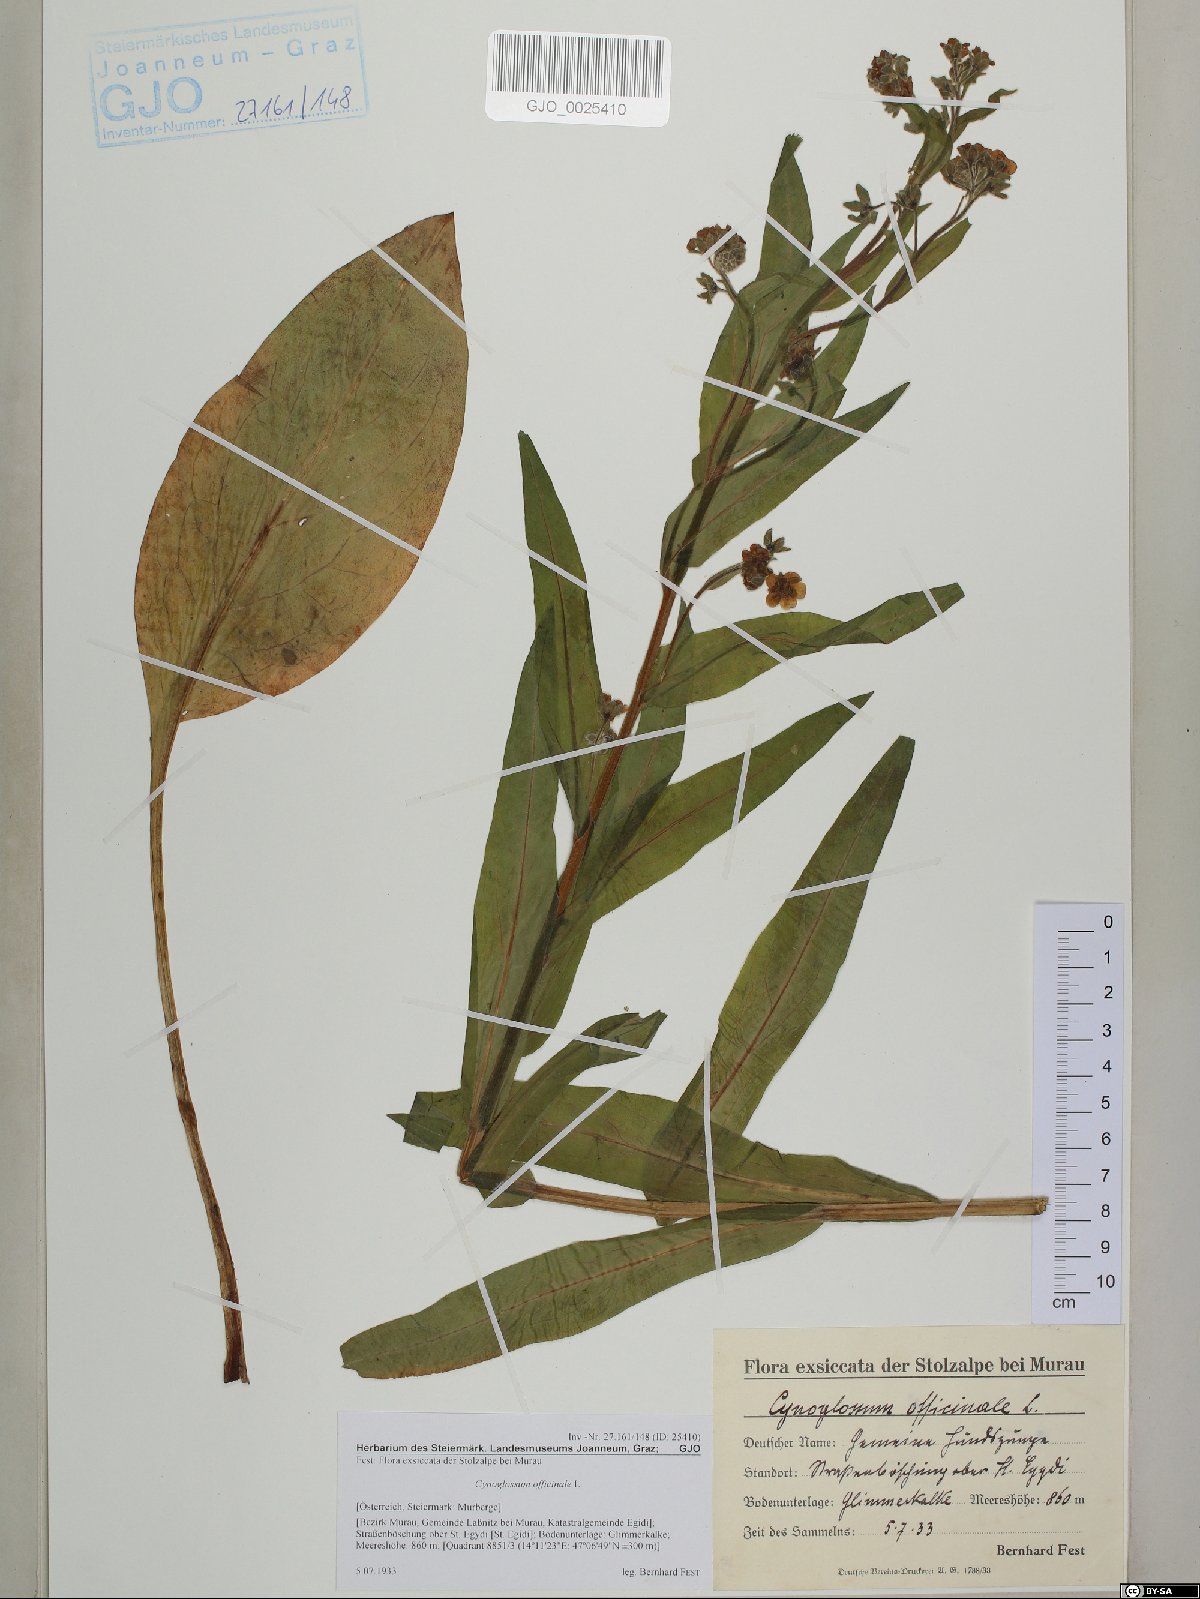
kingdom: Plantae
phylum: Tracheophyta
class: Magnoliopsida
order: Boraginales
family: Boraginaceae
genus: Cynoglossum
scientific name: Cynoglossum officinale
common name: Hound's-tongue
